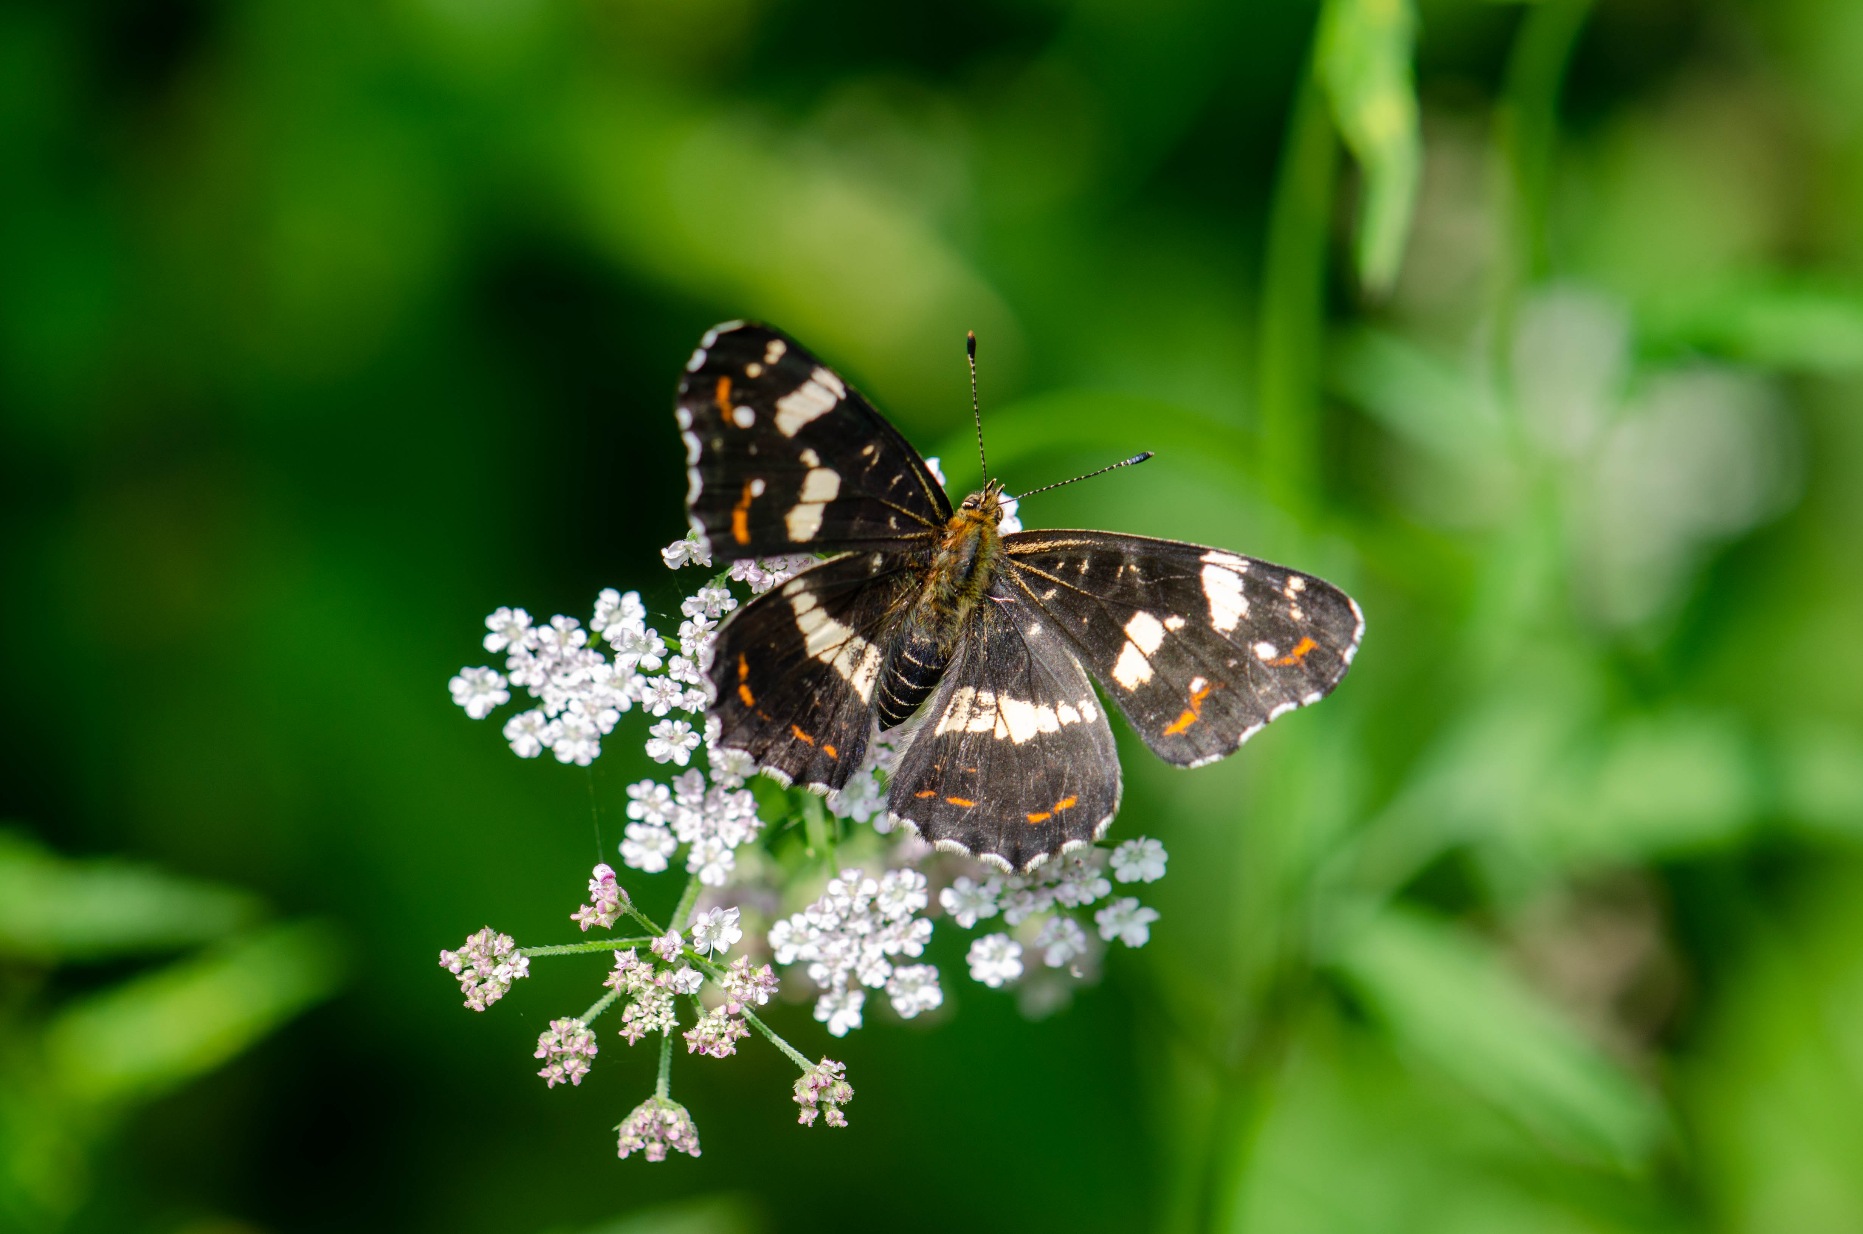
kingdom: Animalia
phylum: Arthropoda
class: Insecta
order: Lepidoptera
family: Nymphalidae
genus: Araschnia
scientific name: Araschnia levana
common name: Nældesommerfugl
